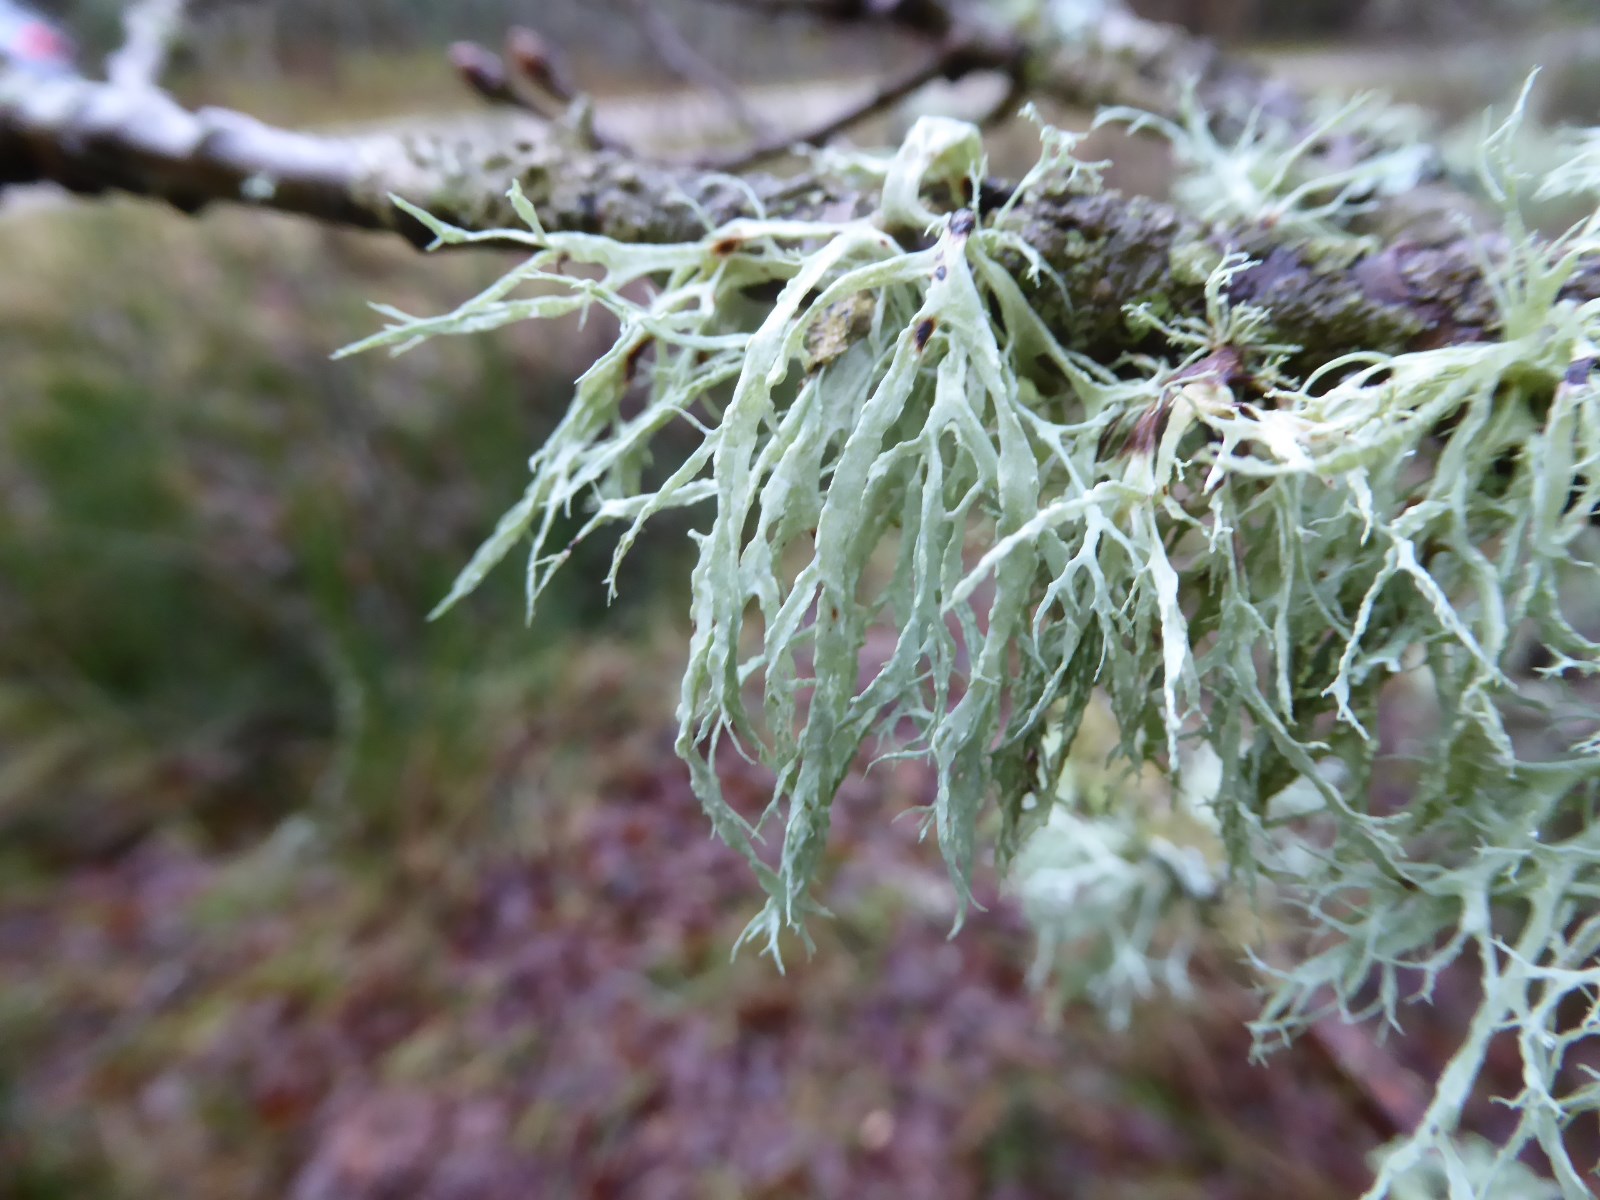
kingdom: Fungi
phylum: Ascomycota
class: Lecanoromycetes
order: Lecanorales
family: Ramalinaceae
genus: Ramalina
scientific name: Ramalina farinacea
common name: melet grenlav
